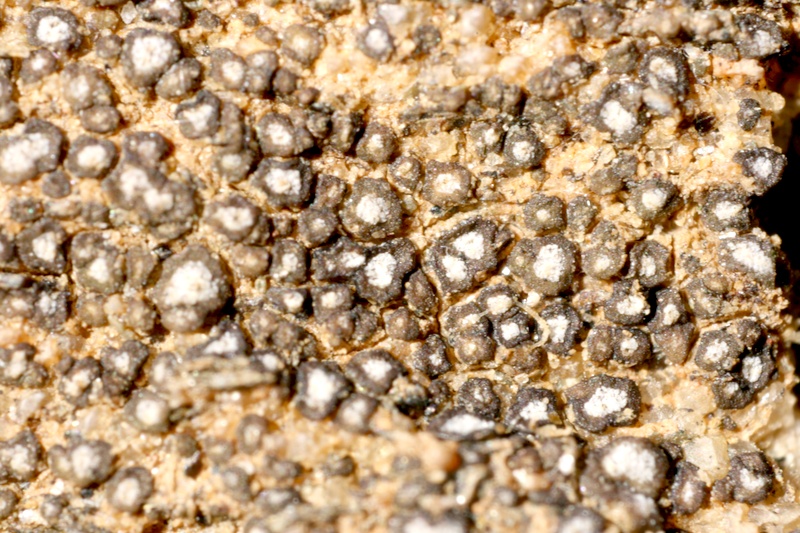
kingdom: Fungi
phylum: Ascomycota
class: Lecanoromycetes
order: Acarosporales
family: Acarosporaceae
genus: Acarospora
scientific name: Acarospora
